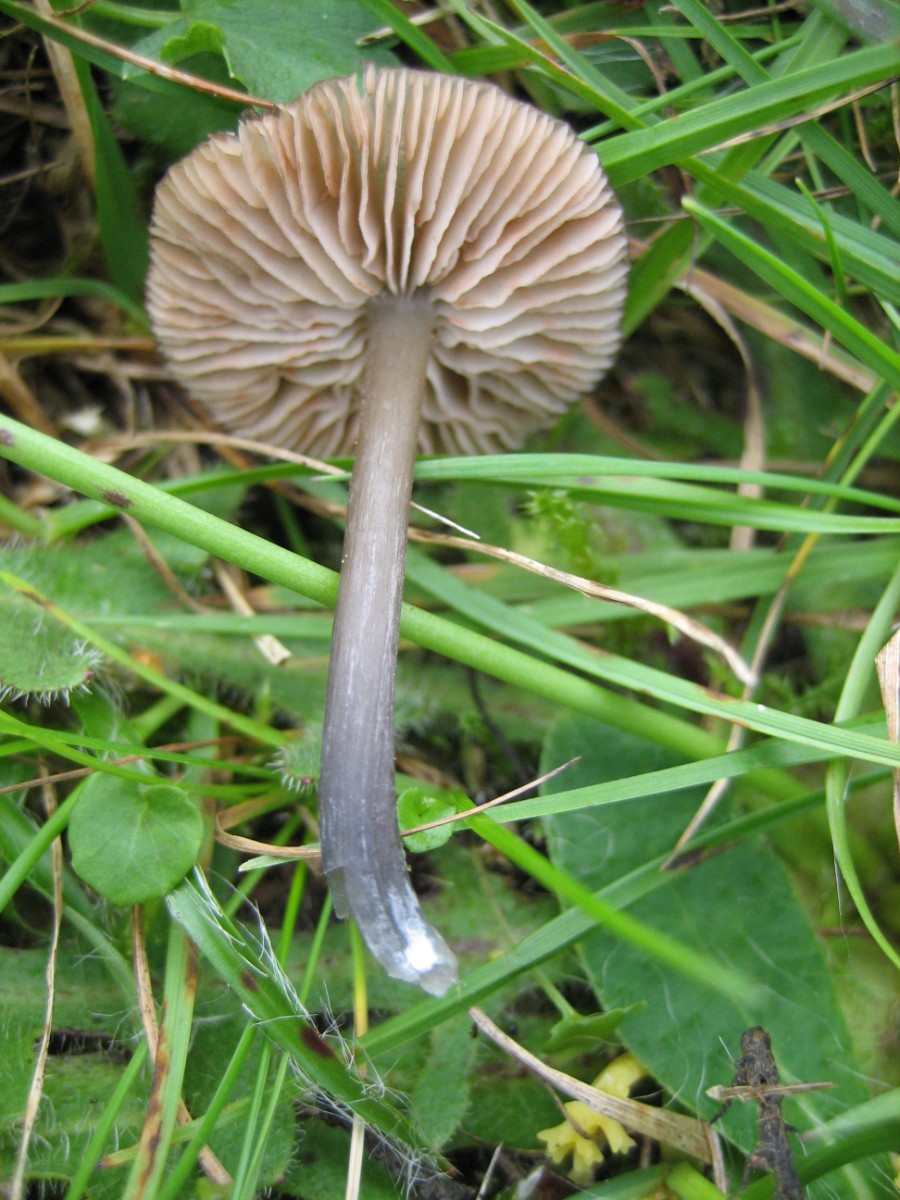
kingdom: Fungi
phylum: Basidiomycota
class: Agaricomycetes
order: Agaricales
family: Entolomataceae
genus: Entoloma
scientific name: Entoloma
